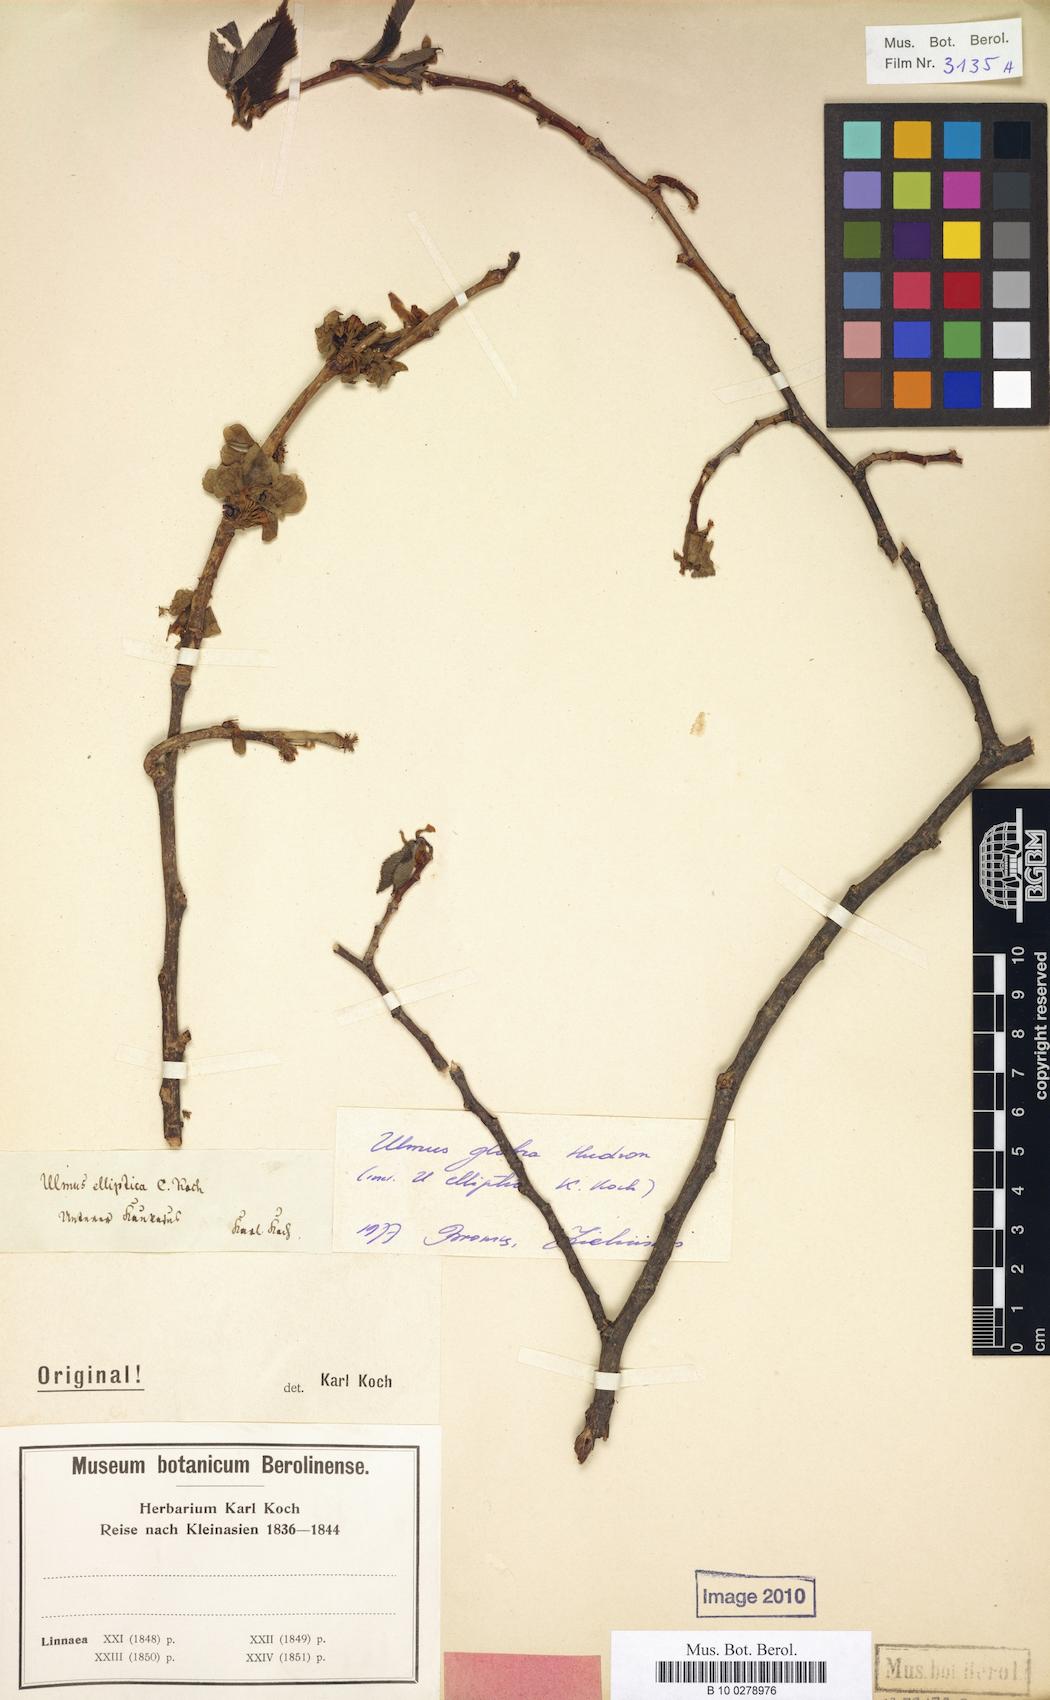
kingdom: Plantae
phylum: Tracheophyta
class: Magnoliopsida
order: Rosales
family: Ulmaceae
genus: Ulmus
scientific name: Ulmus glabra
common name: Wych elm
